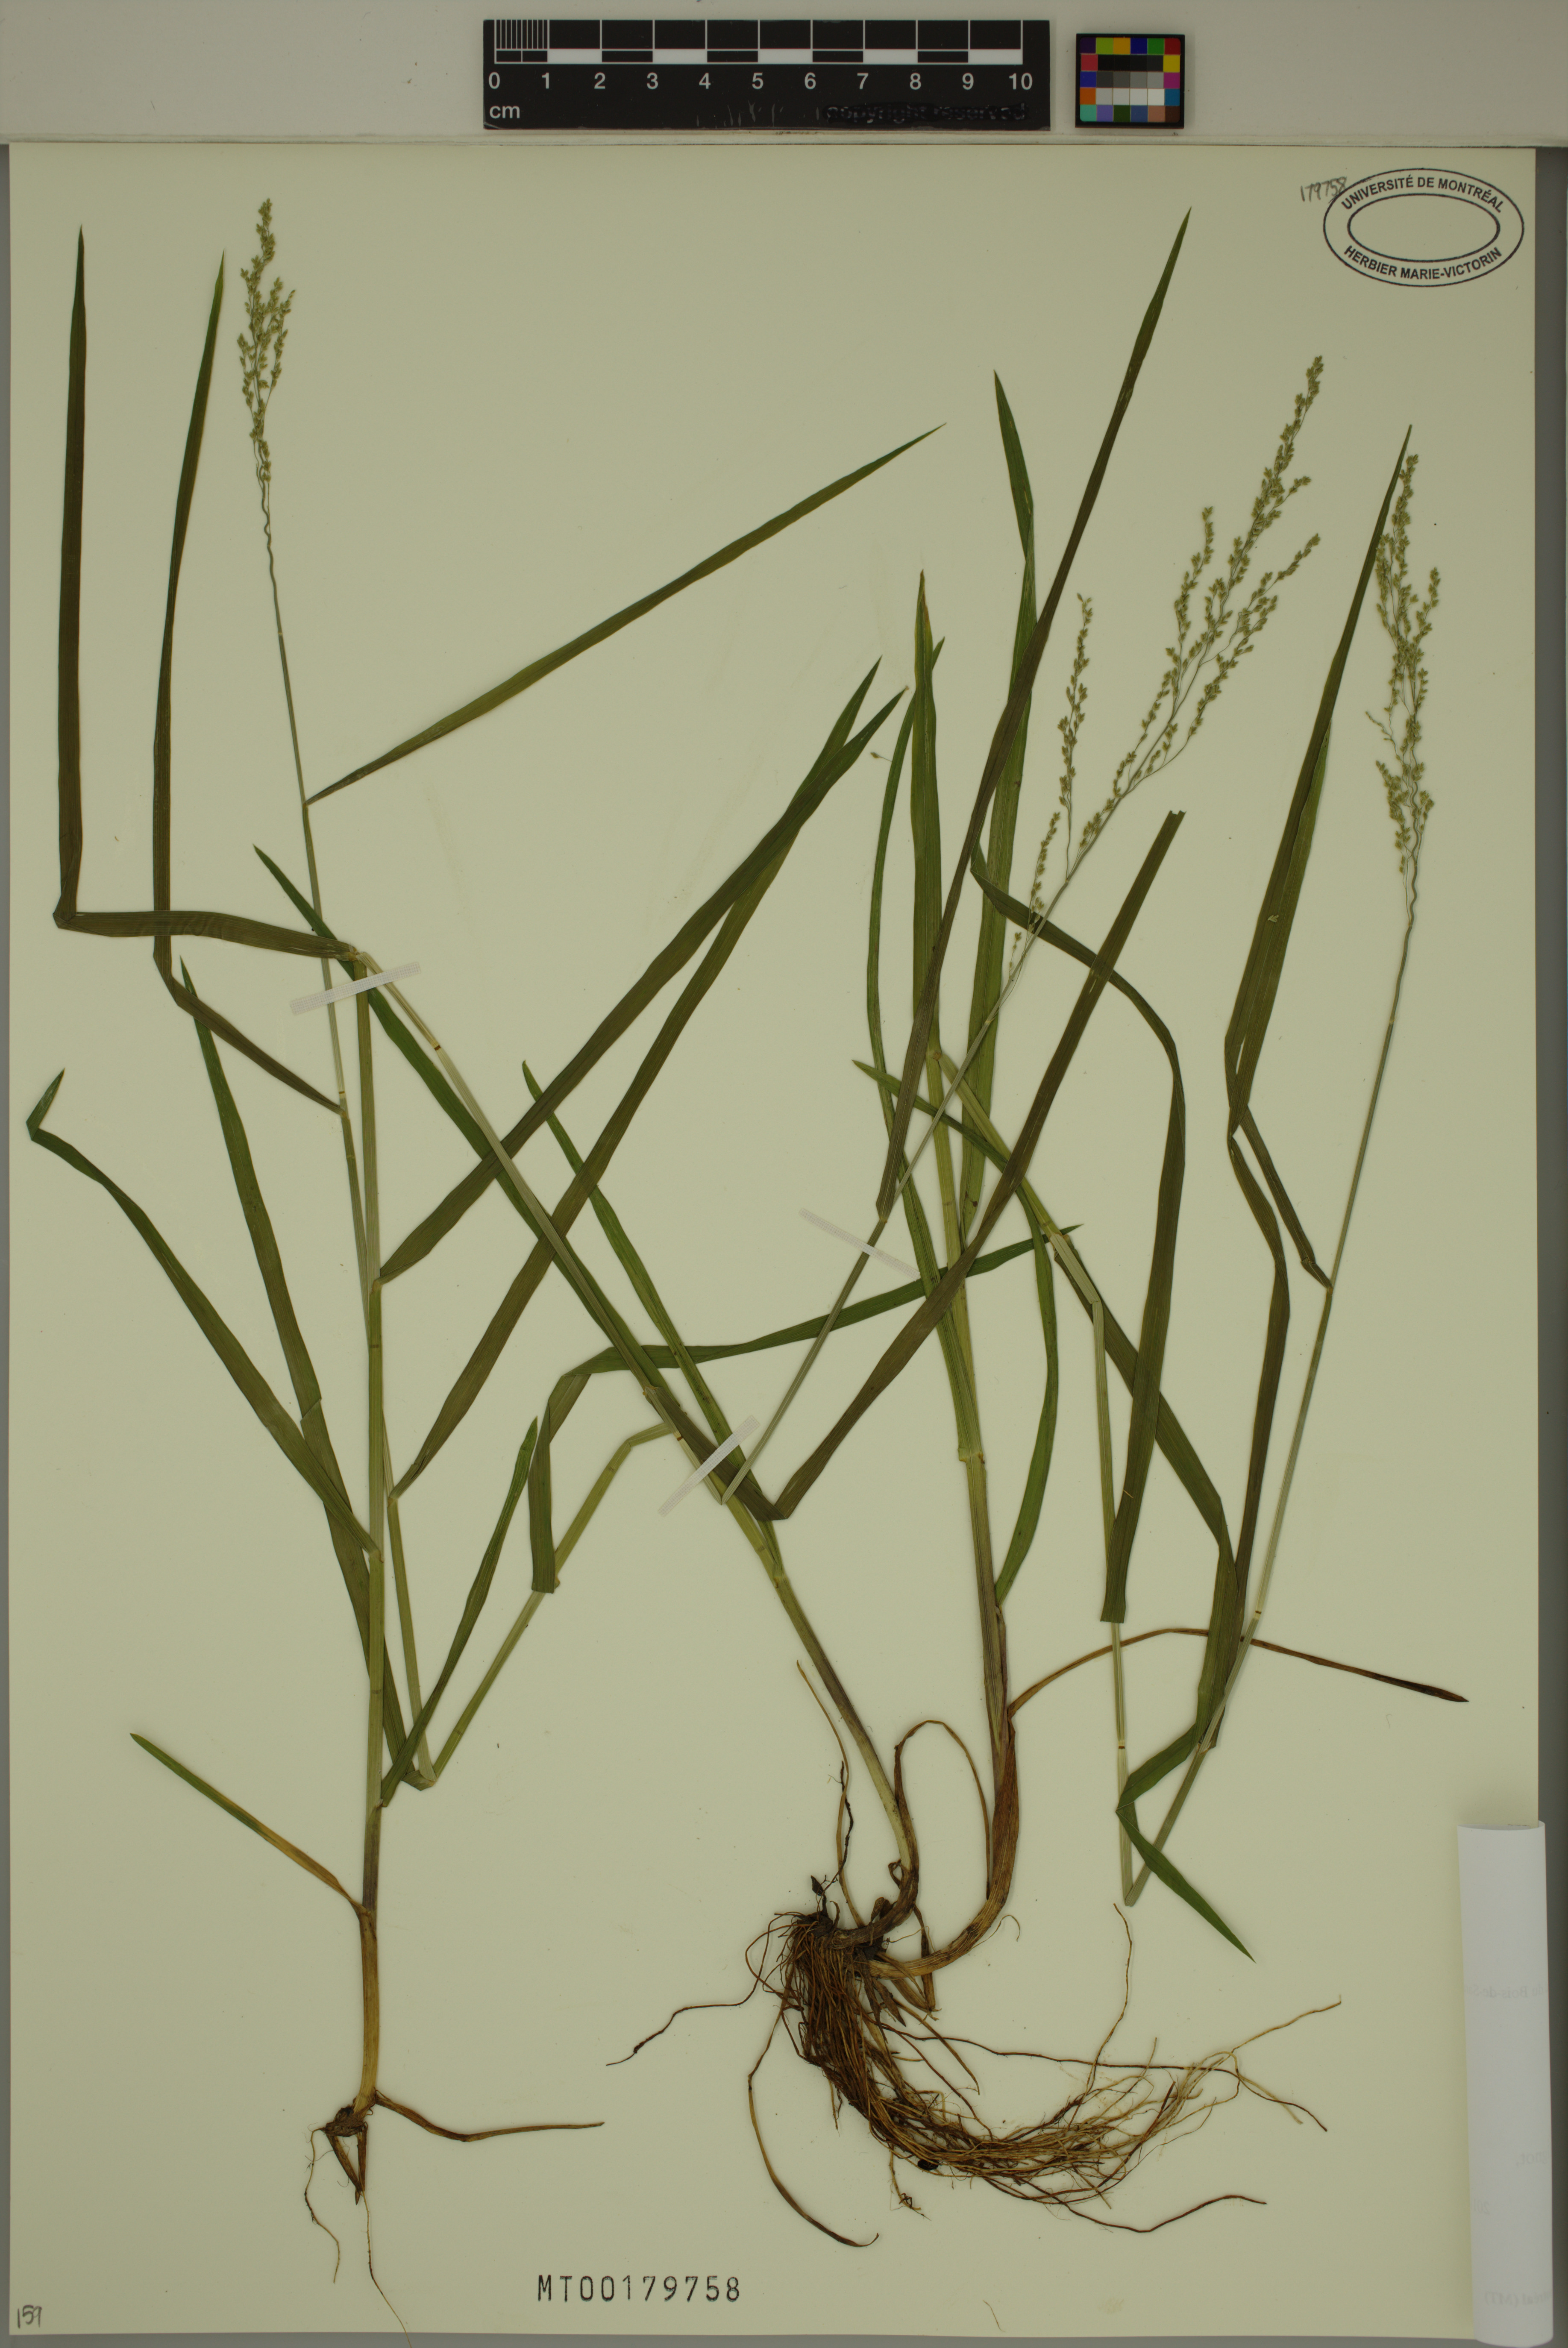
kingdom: Plantae
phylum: Tracheophyta
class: Liliopsida
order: Poales
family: Poaceae
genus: Glyceria
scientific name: Glyceria striata
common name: Fowl manna grass
